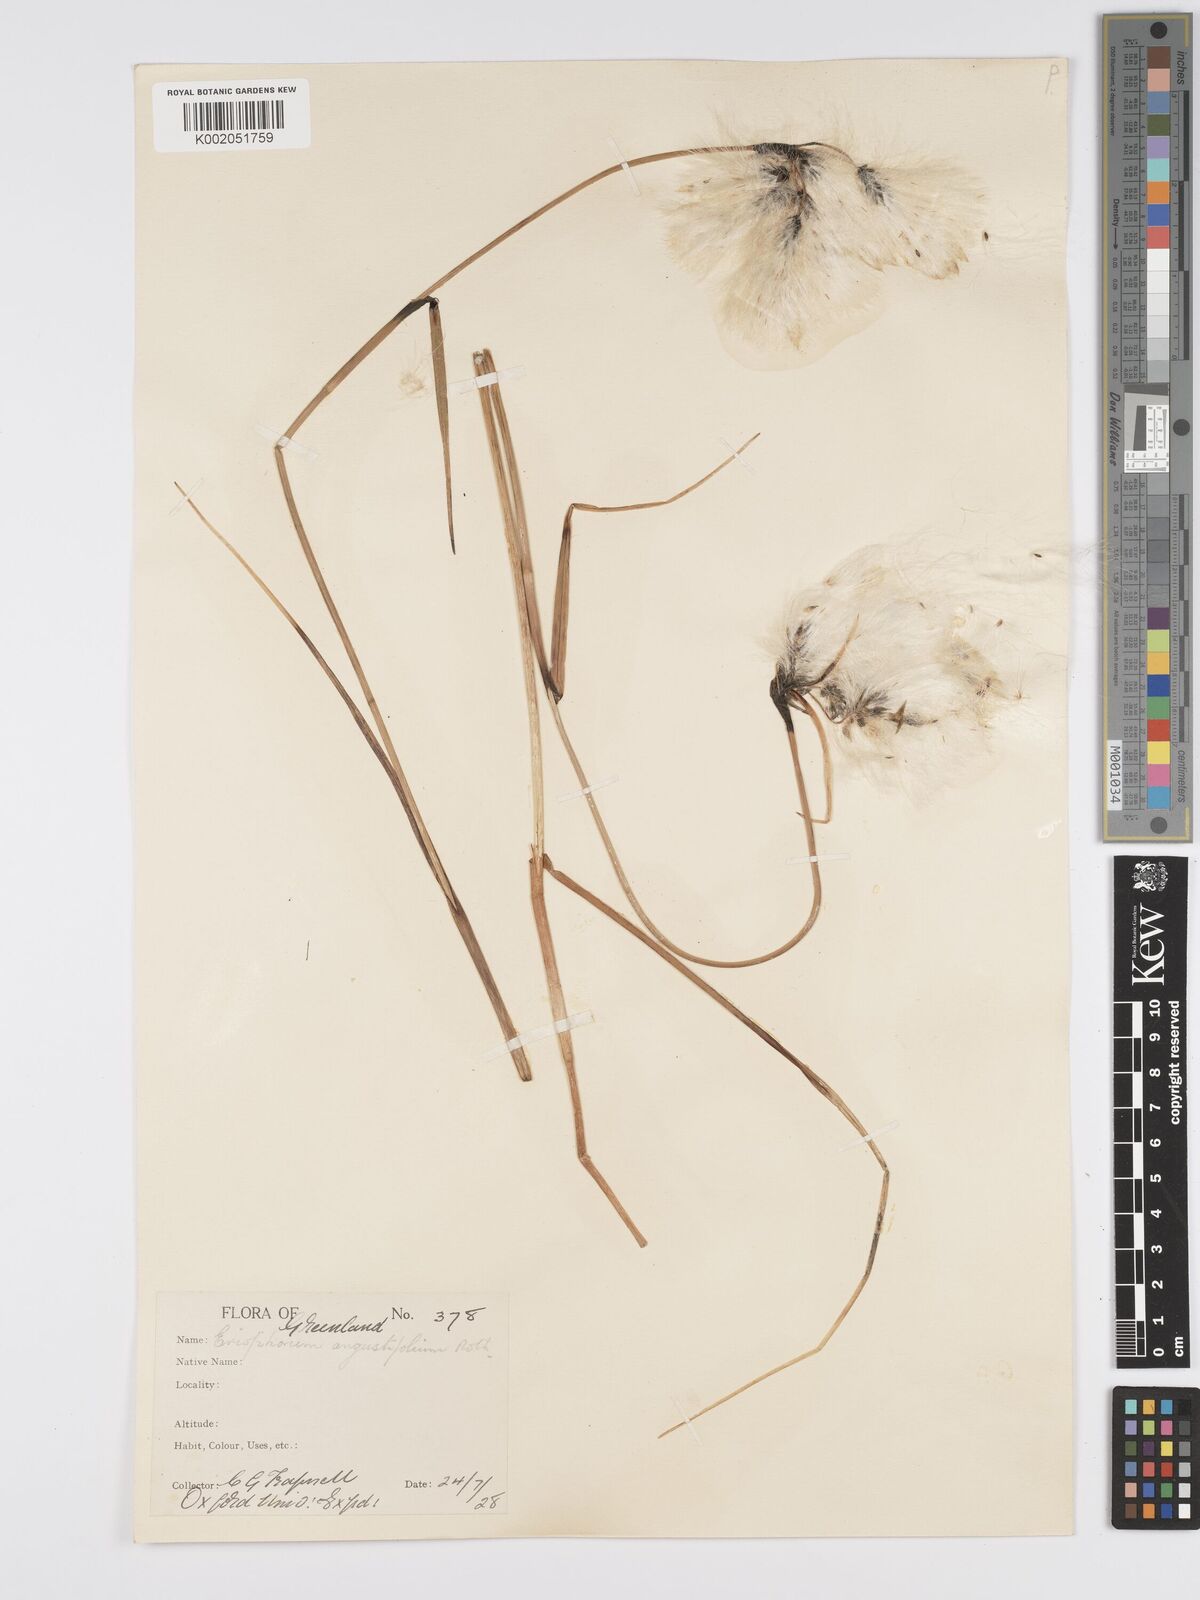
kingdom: Plantae
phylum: Tracheophyta
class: Liliopsida
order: Poales
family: Cyperaceae
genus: Eriophorum
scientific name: Eriophorum angustifolium
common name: Common cottongrass
